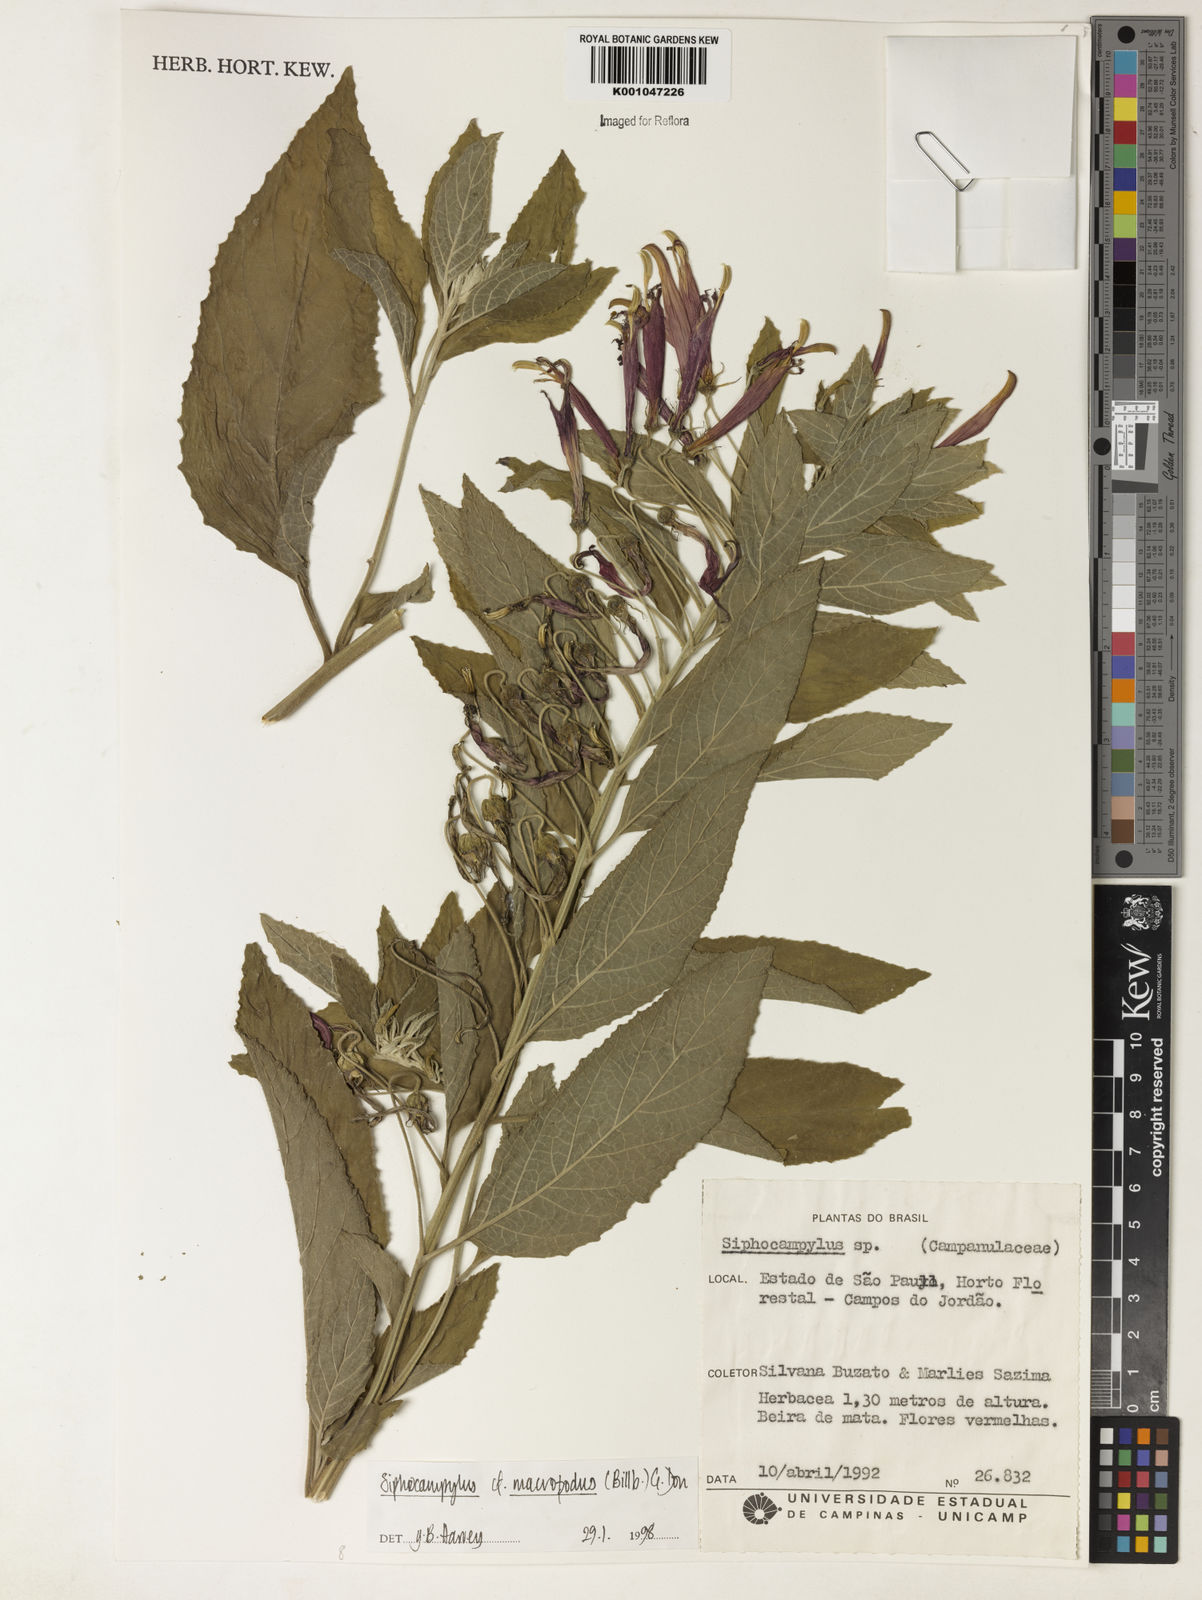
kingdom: Plantae
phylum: Tracheophyta
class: Magnoliopsida
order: Asterales
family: Campanulaceae
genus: Siphocampylus
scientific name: Siphocampylus macropodus
